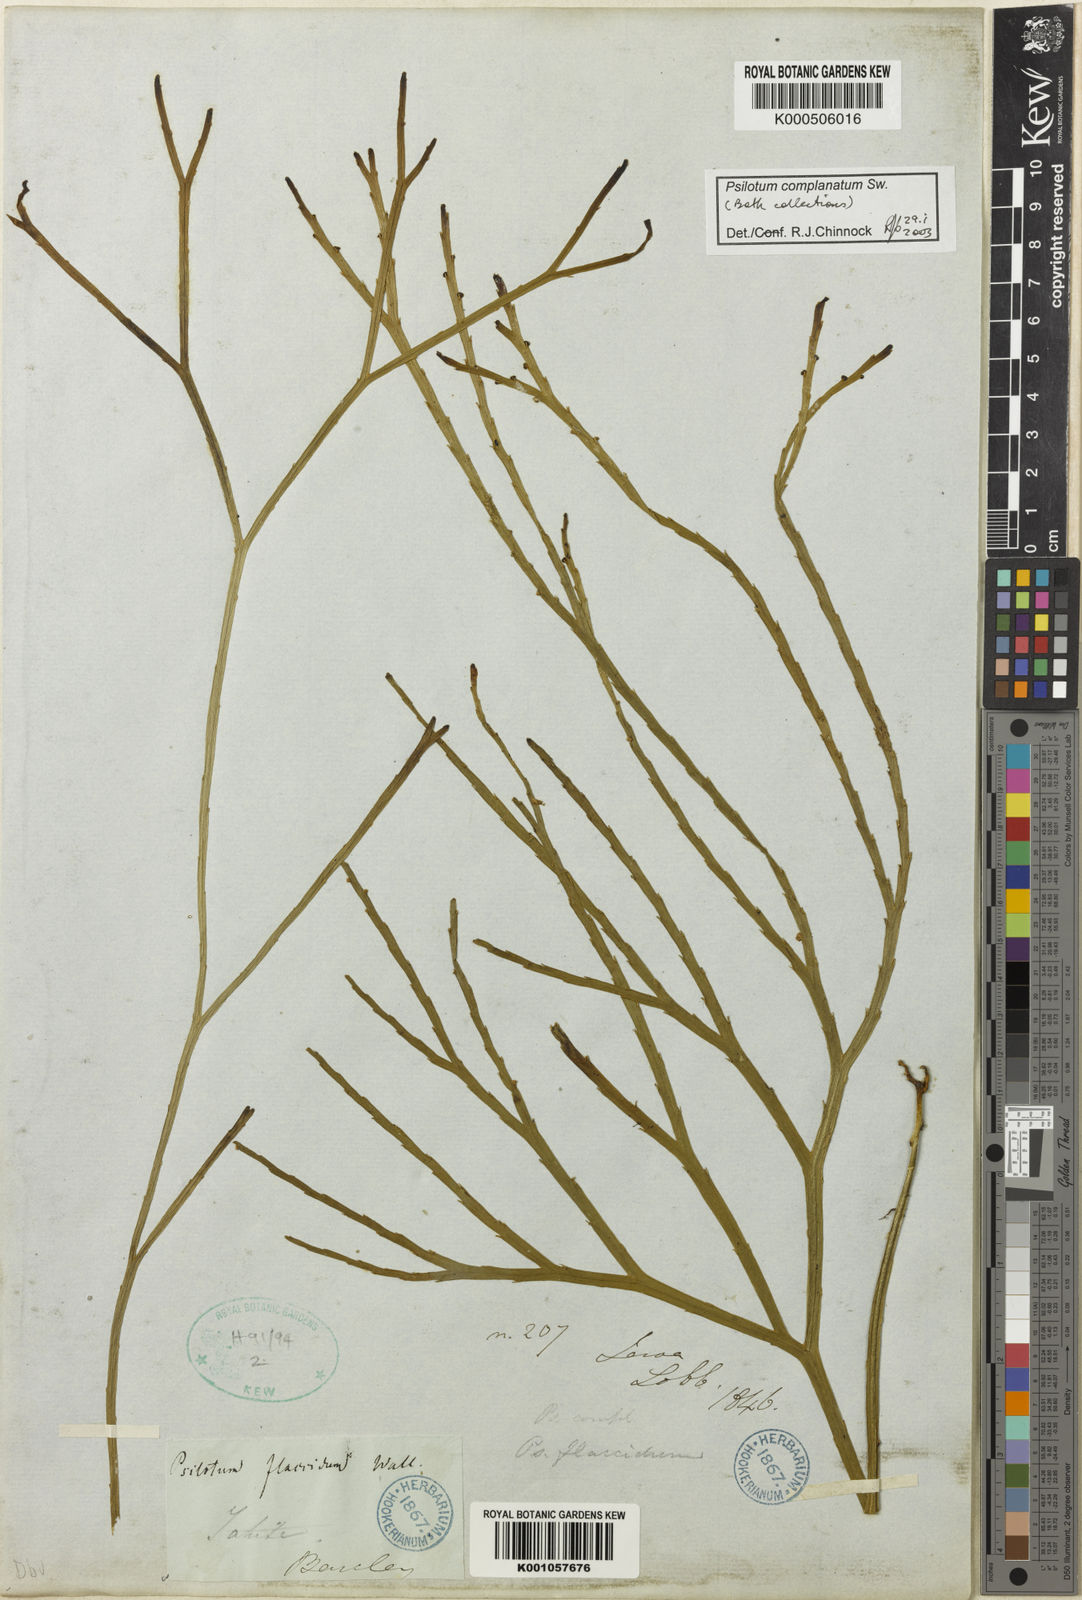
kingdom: Plantae
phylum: Tracheophyta
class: Polypodiopsida
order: Psilotales
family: Psilotaceae
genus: Psilotum
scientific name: Psilotum complanatum
